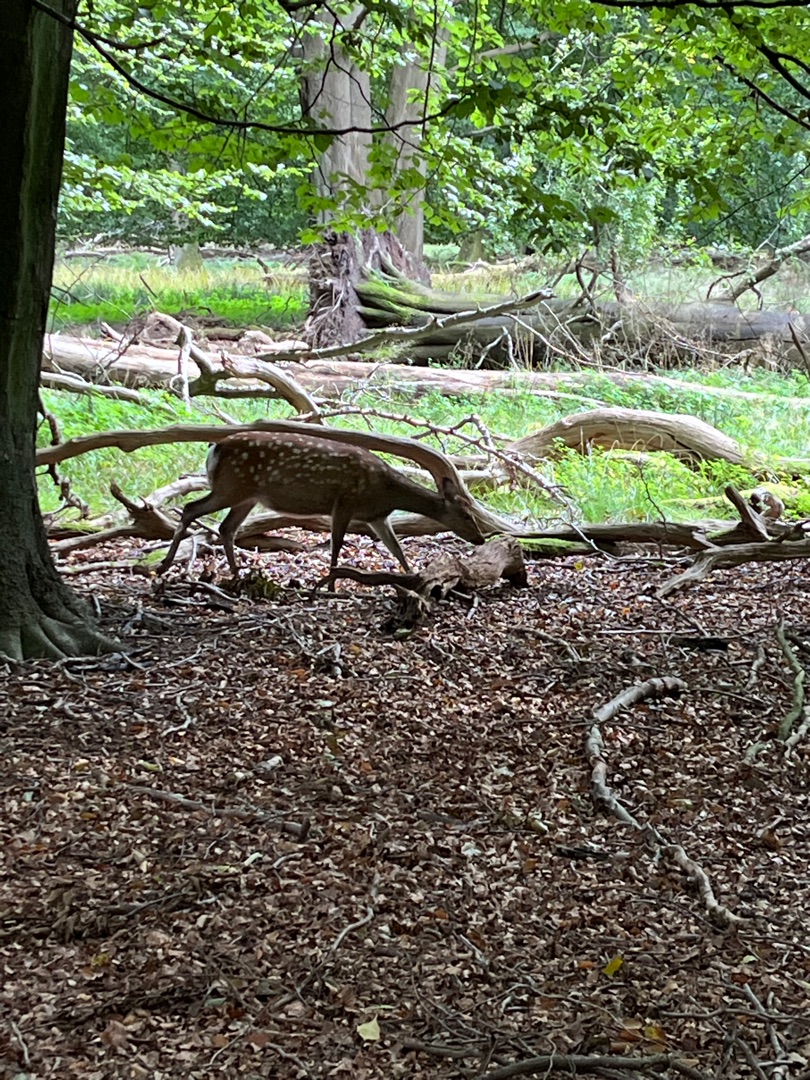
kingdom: Animalia
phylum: Chordata
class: Mammalia
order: Artiodactyla
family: Cervidae
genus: Dama
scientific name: Dama dama
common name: Dådyr
